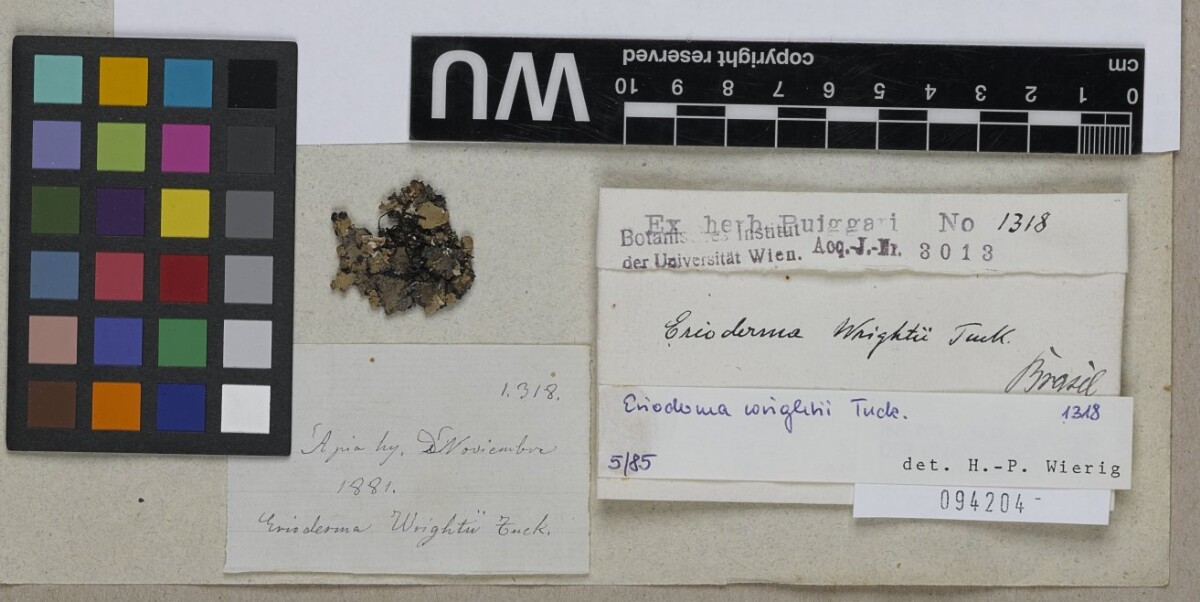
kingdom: Fungi
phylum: Ascomycota
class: Lecanoromycetes
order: Peltigerales
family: Pannariaceae
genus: Erioderma
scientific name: Erioderma wrightii
